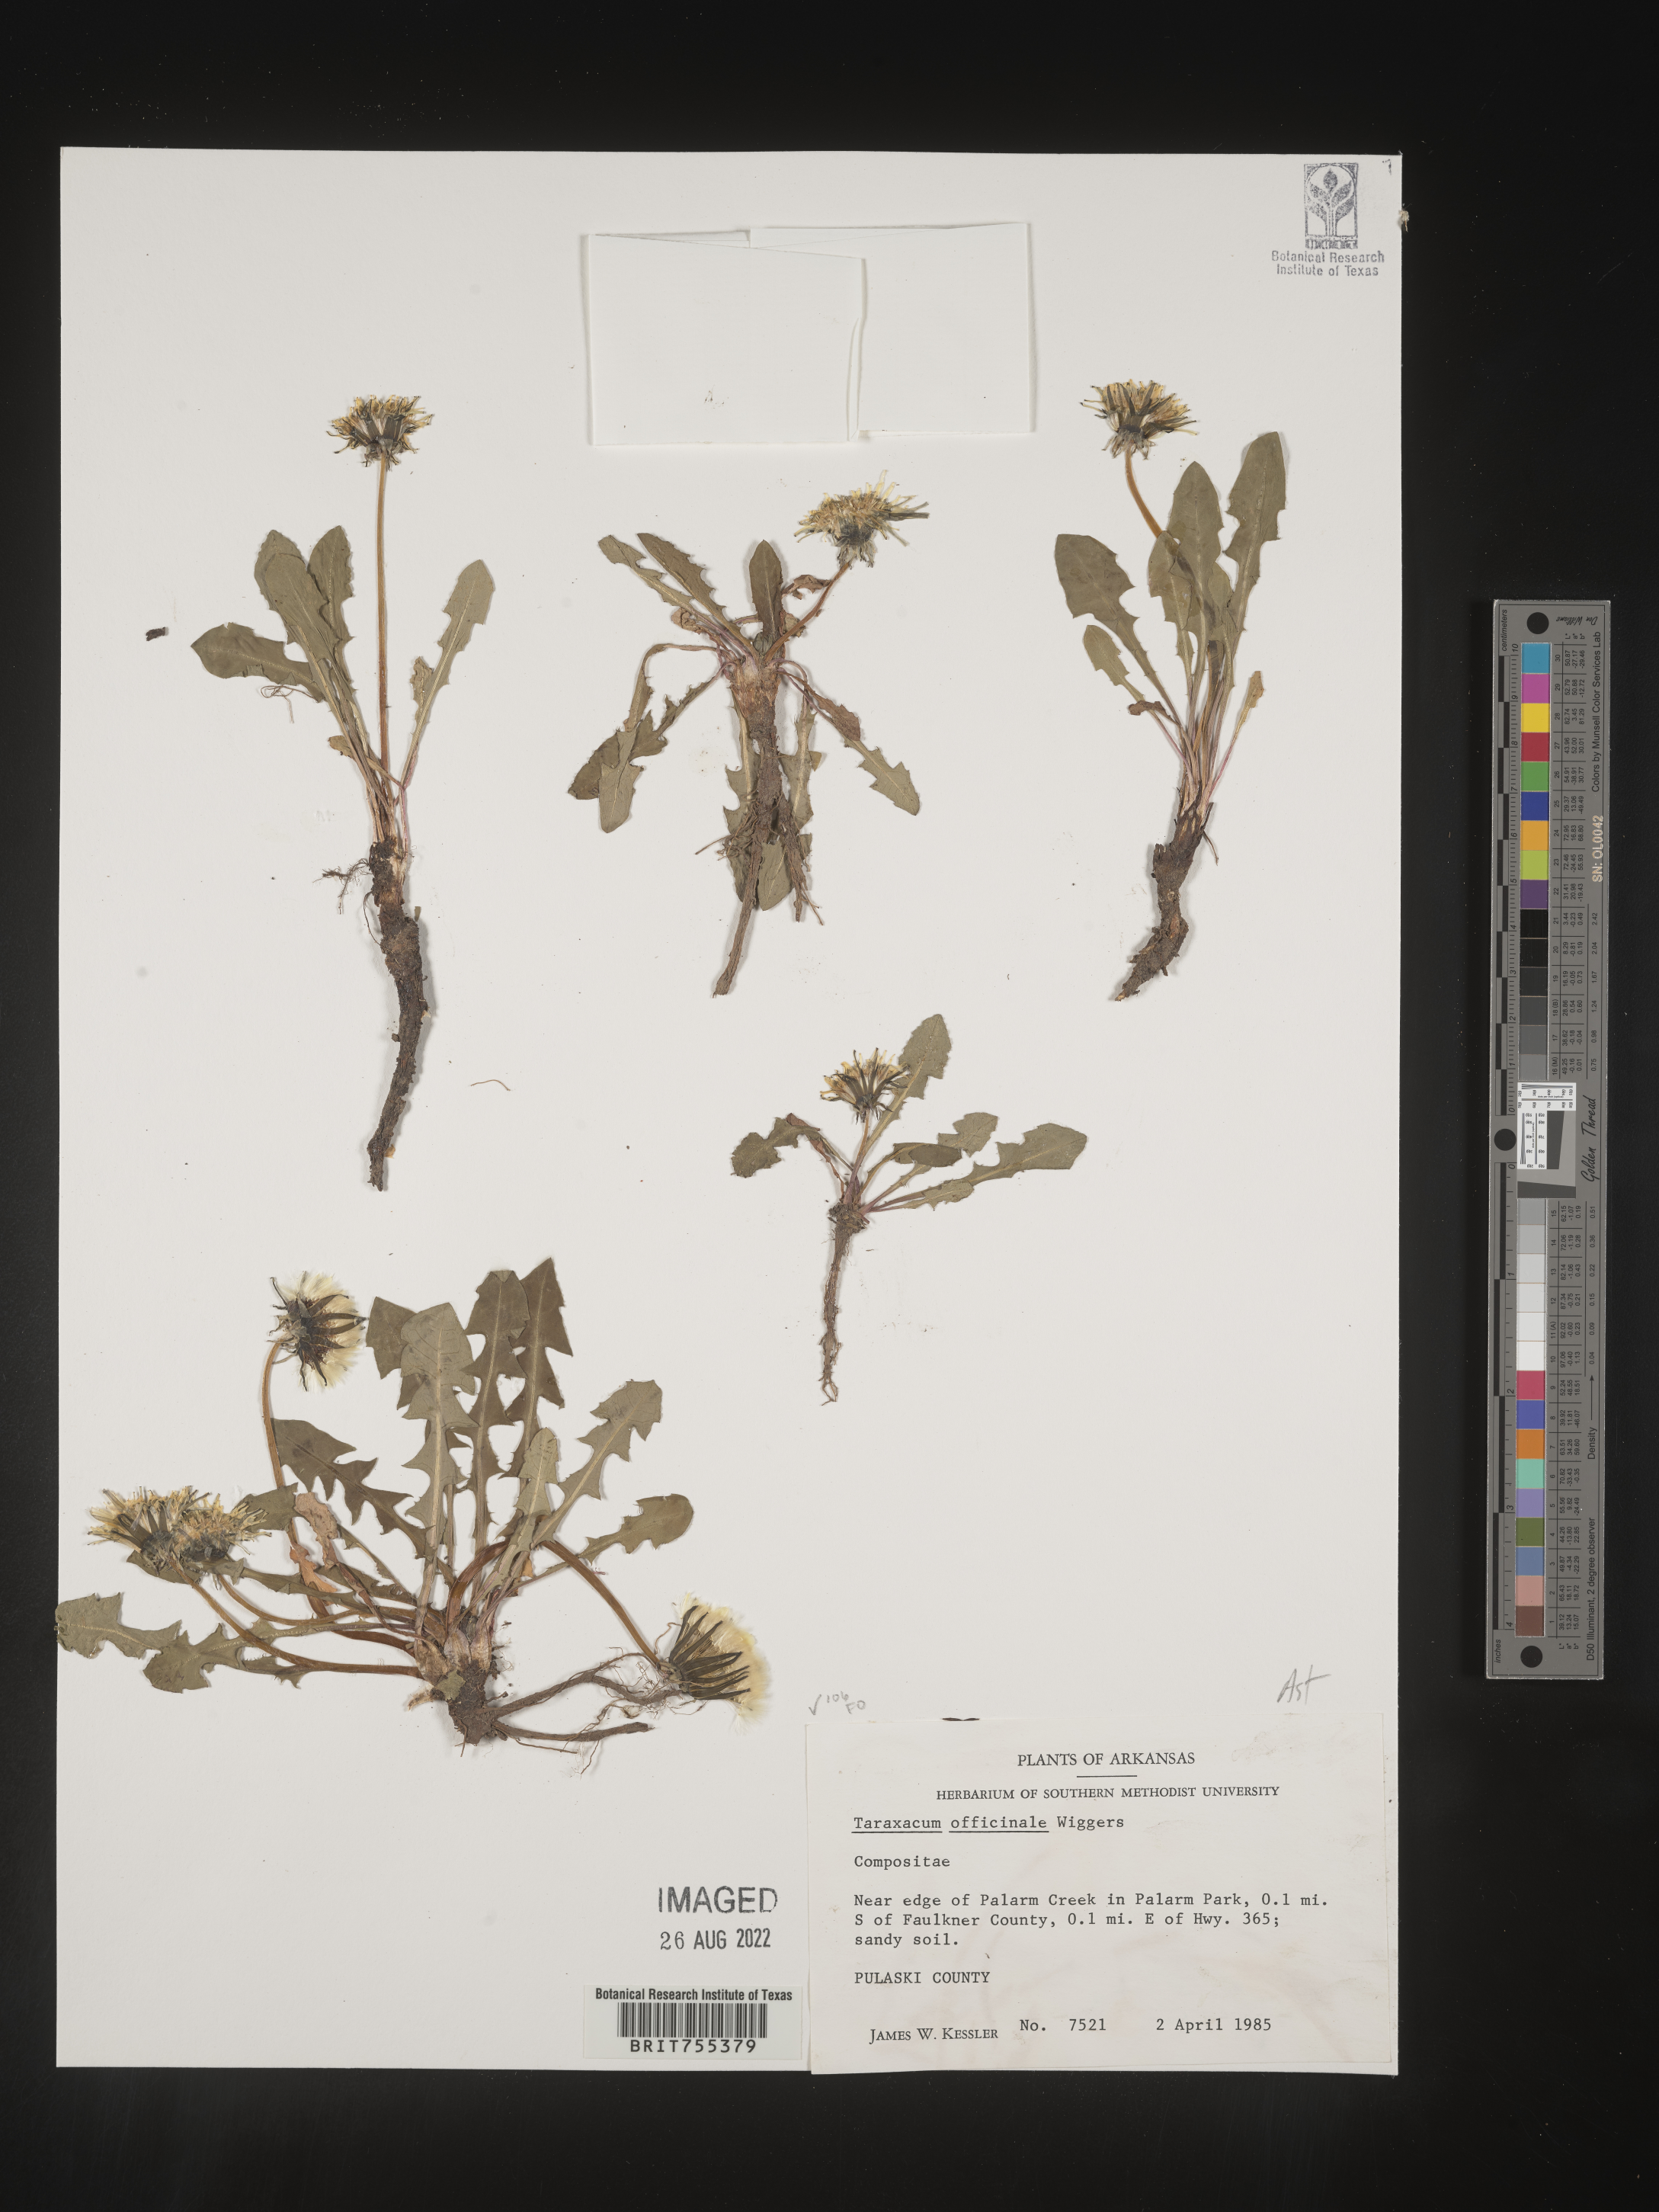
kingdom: Plantae
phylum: Tracheophyta
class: Magnoliopsida
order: Asterales
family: Asteraceae
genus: Taraxacum
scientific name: Taraxacum officinale
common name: Common dandelion
